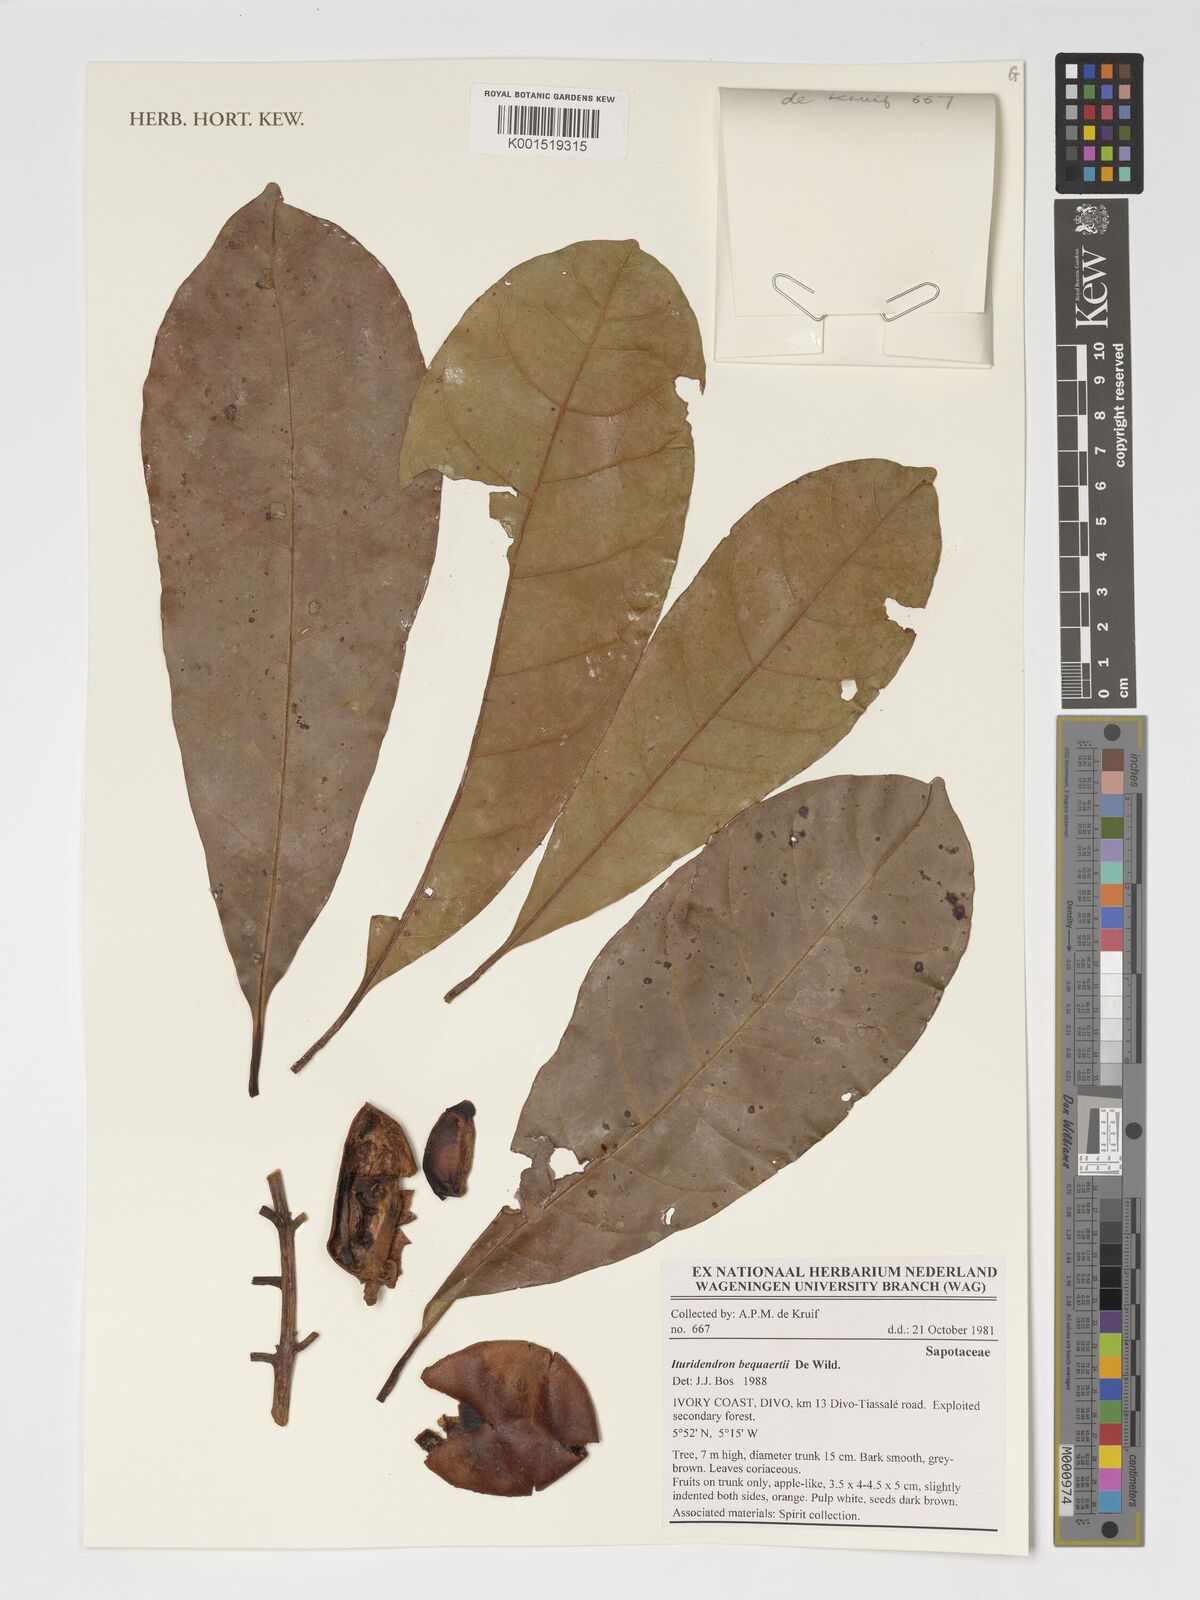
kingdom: Plantae
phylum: Tracheophyta
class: Magnoliopsida
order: Ericales
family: Sapotaceae
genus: Omphalocarpum
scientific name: Omphalocarpum pachysteloides
